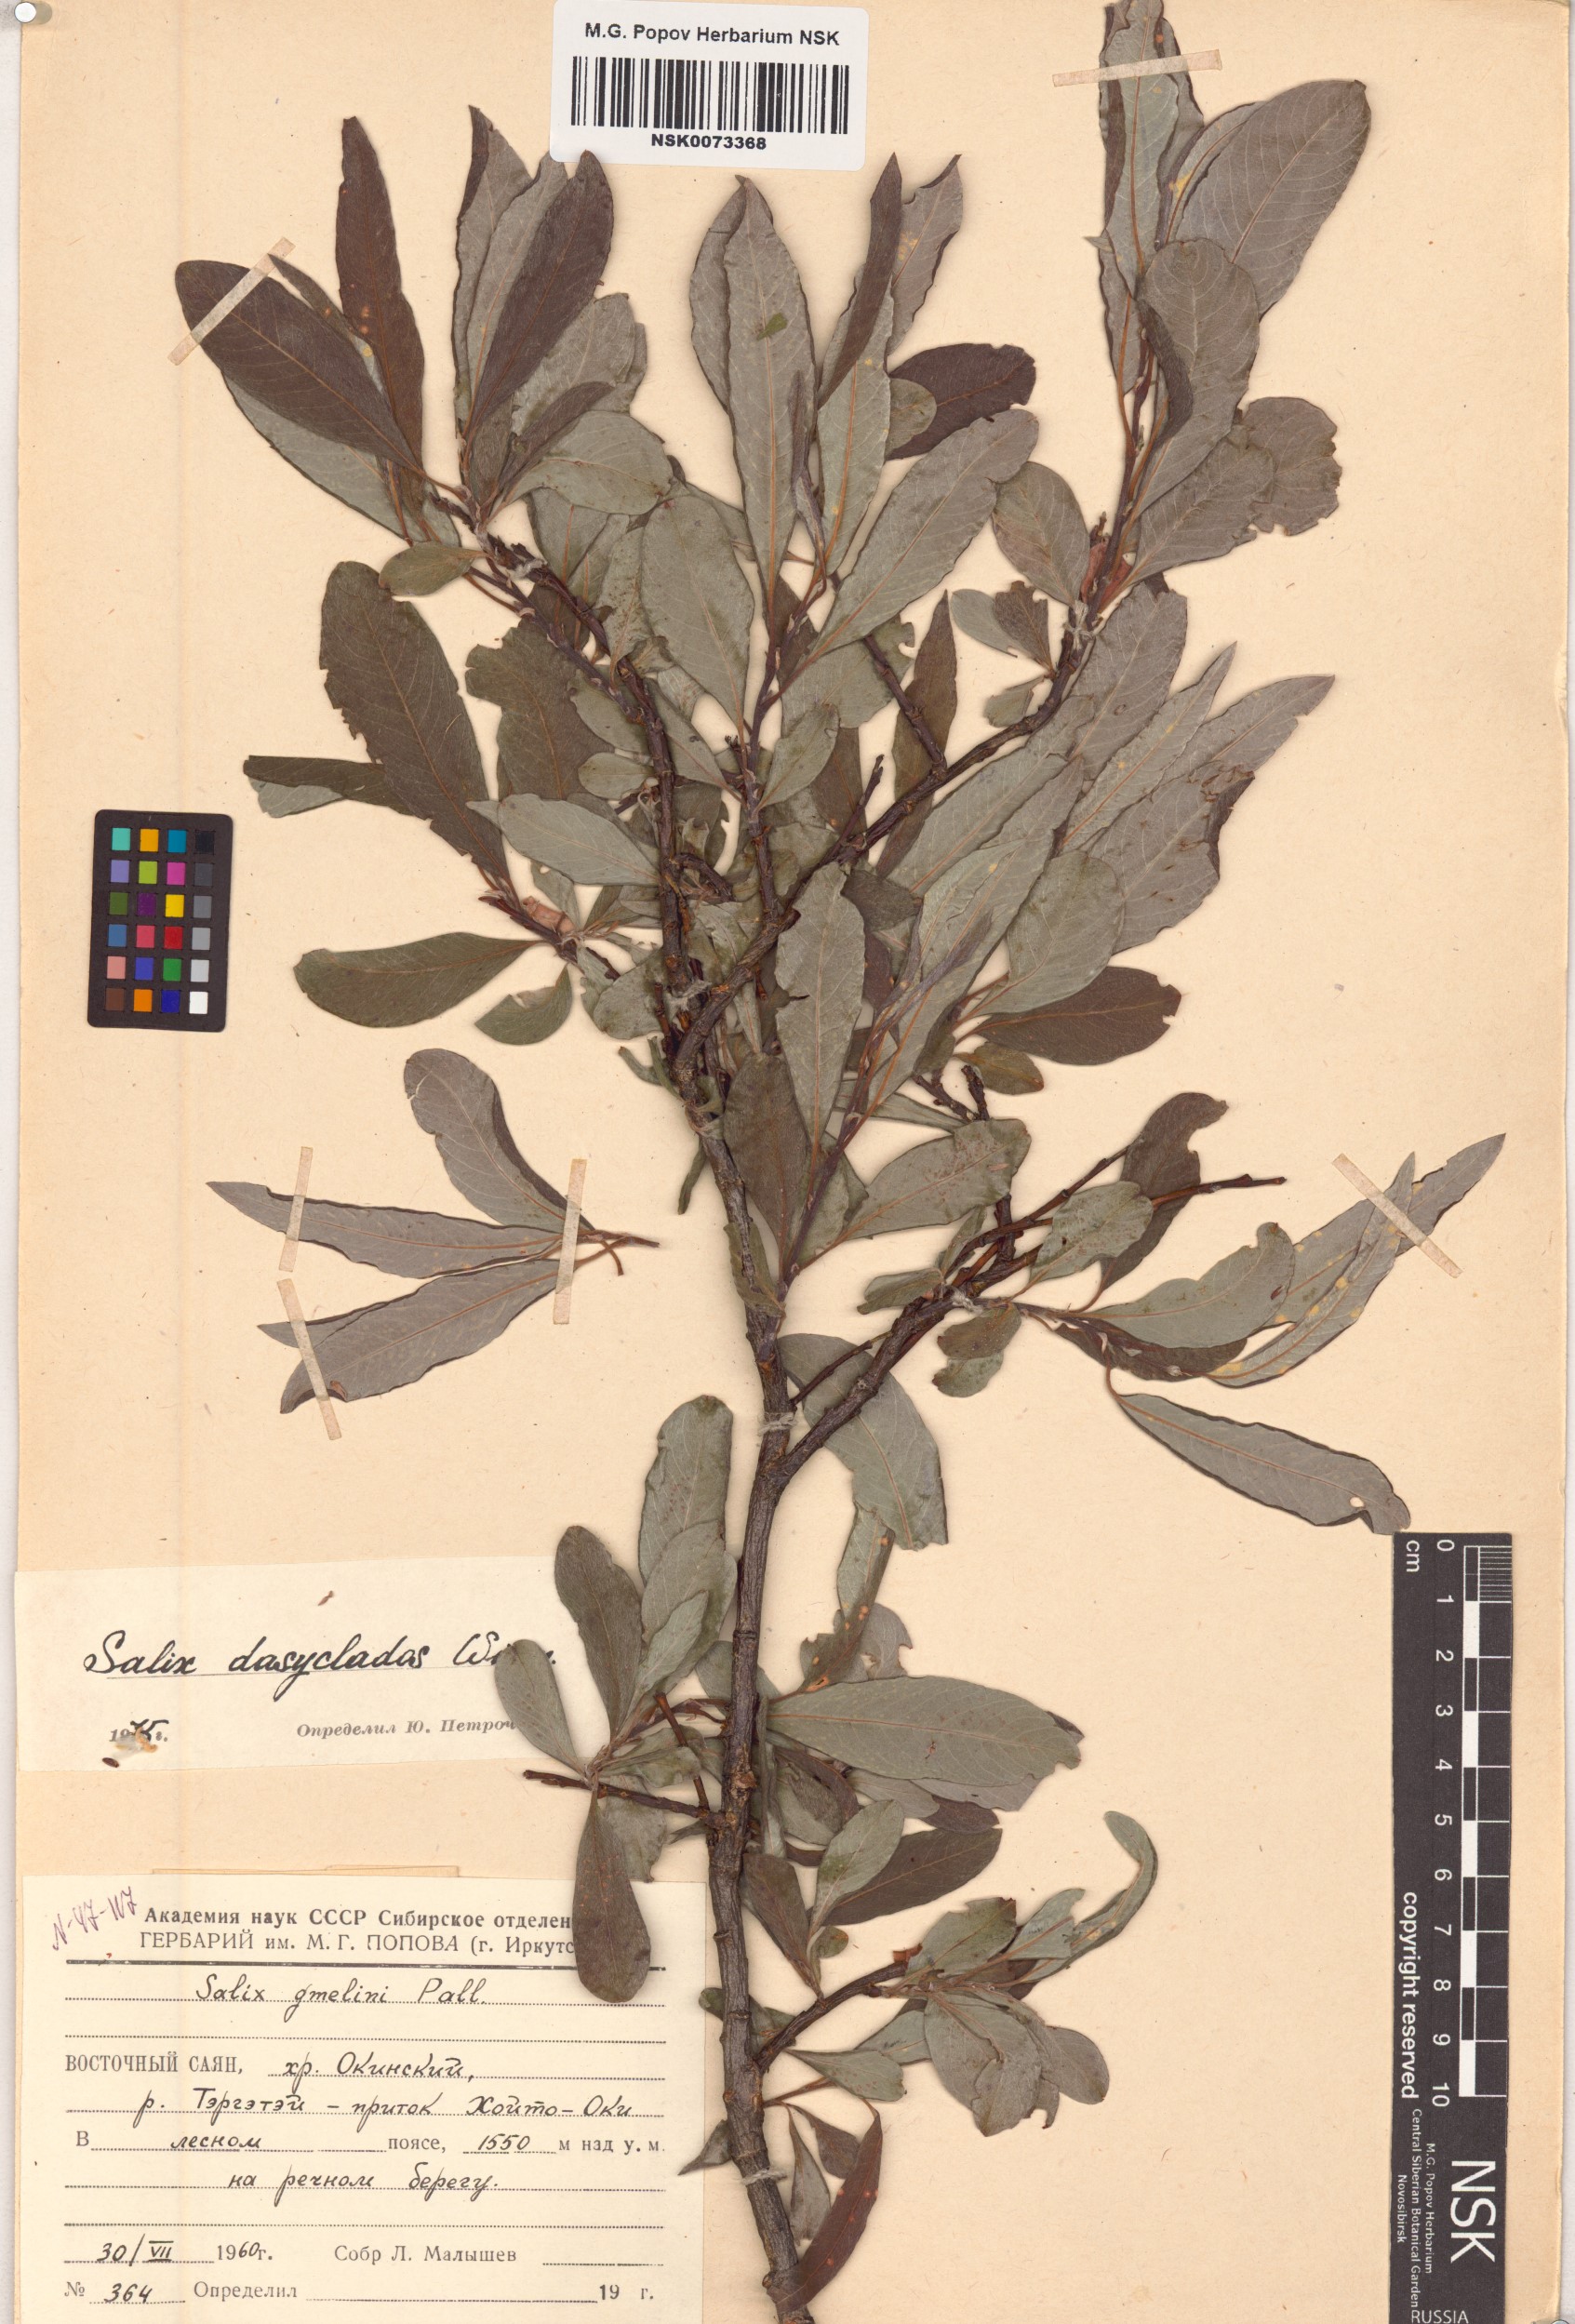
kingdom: Plantae
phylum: Tracheophyta
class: Magnoliopsida
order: Malpighiales
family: Salicaceae
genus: Salix
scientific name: Salix gmelinii
